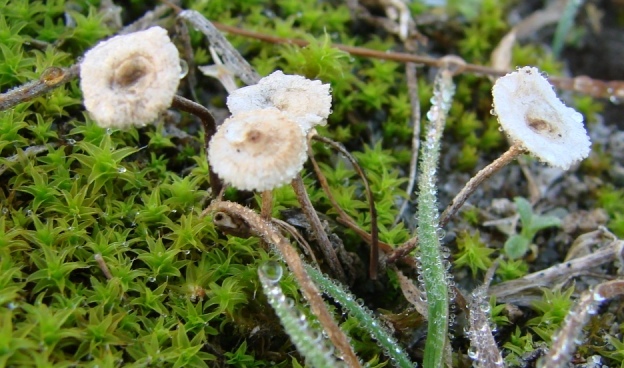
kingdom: Fungi
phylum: Basidiomycota
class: Agaricomycetes
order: Agaricales
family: Marasmiaceae
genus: Crinipellis
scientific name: Crinipellis scabella
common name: børstefod
